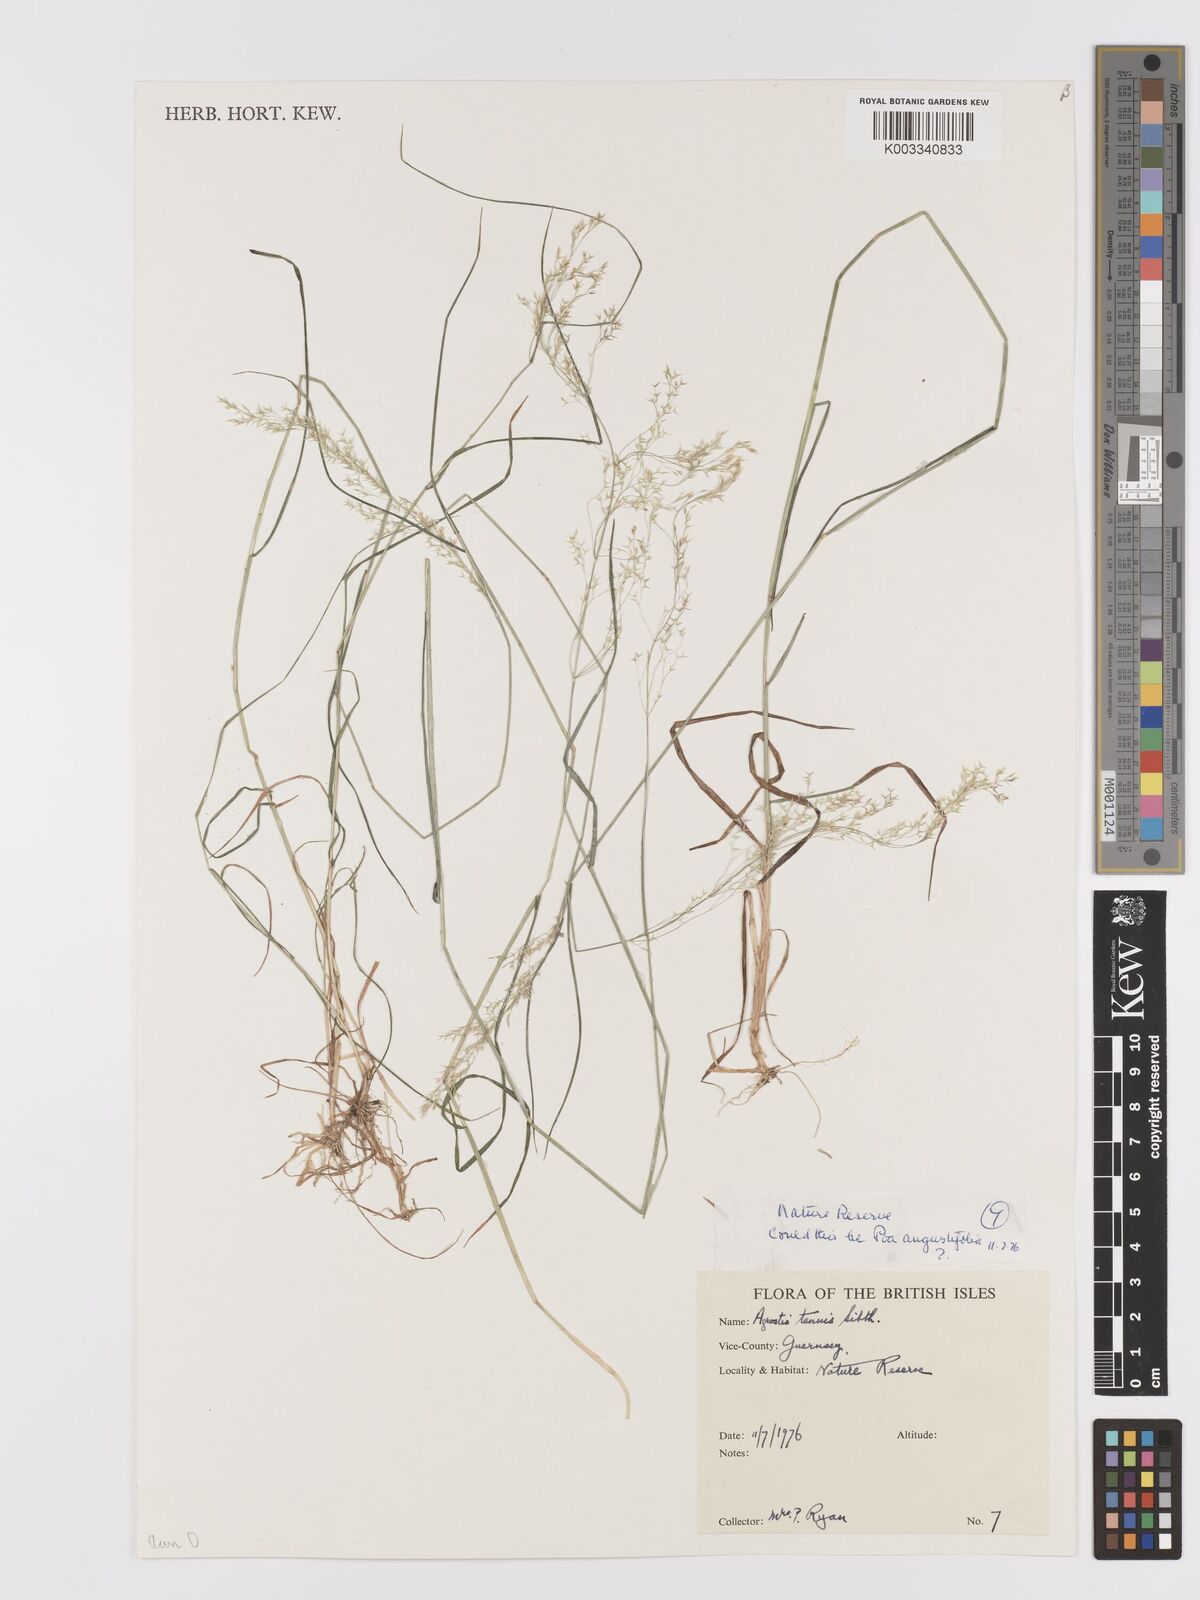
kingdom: Plantae
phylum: Tracheophyta
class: Liliopsida
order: Poales
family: Poaceae
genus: Agrostis
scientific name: Agrostis capillaris
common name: Colonial bentgrass
